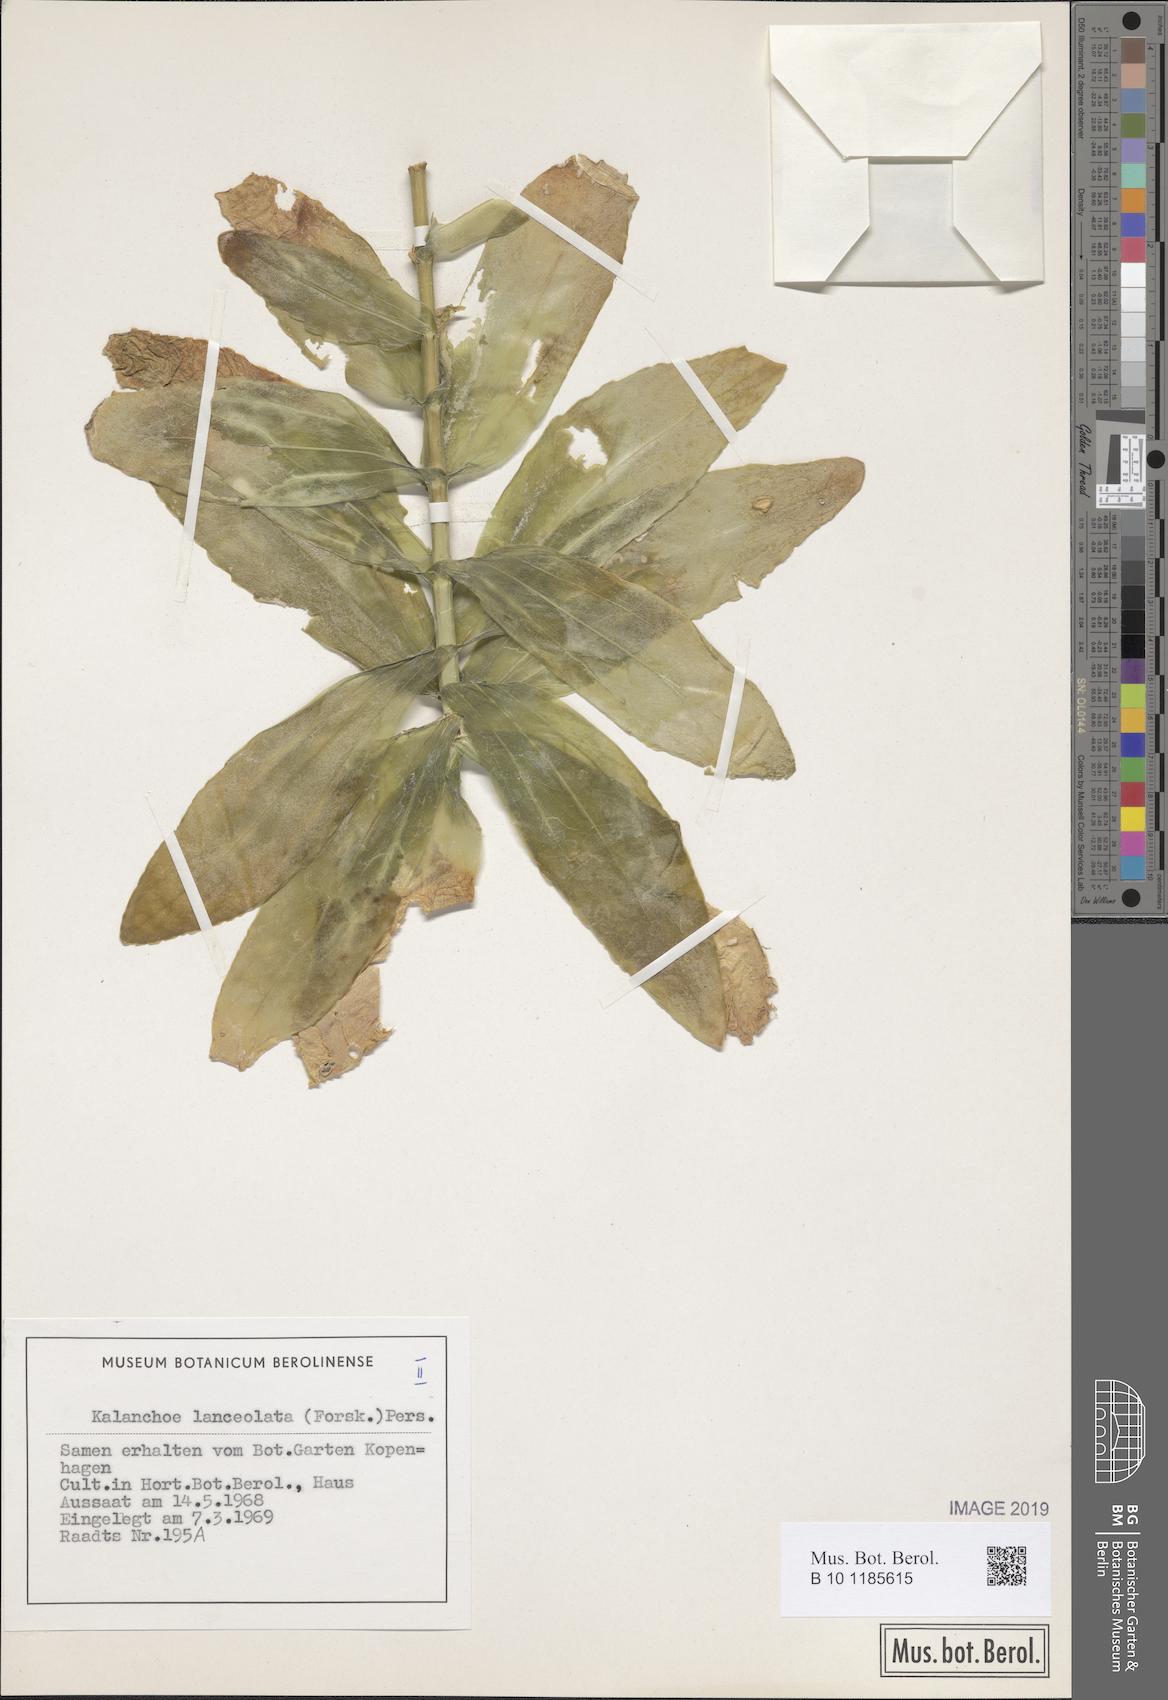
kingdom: Plantae
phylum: Tracheophyta
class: Magnoliopsida
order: Saxifragales
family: Crassulaceae
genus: Kalanchoe
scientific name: Kalanchoe lanceolata
